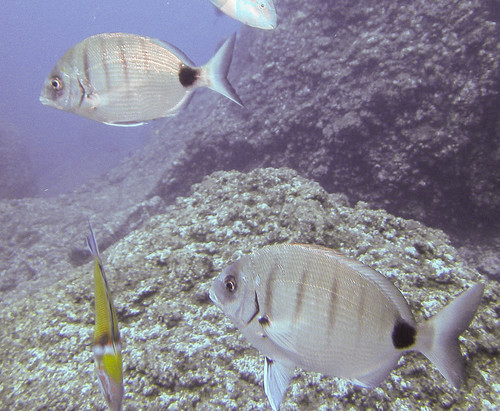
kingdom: Animalia
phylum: Chordata
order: Perciformes
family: Sparidae
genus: Diplodus
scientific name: Diplodus cadenati
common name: Moroccan white seabream
